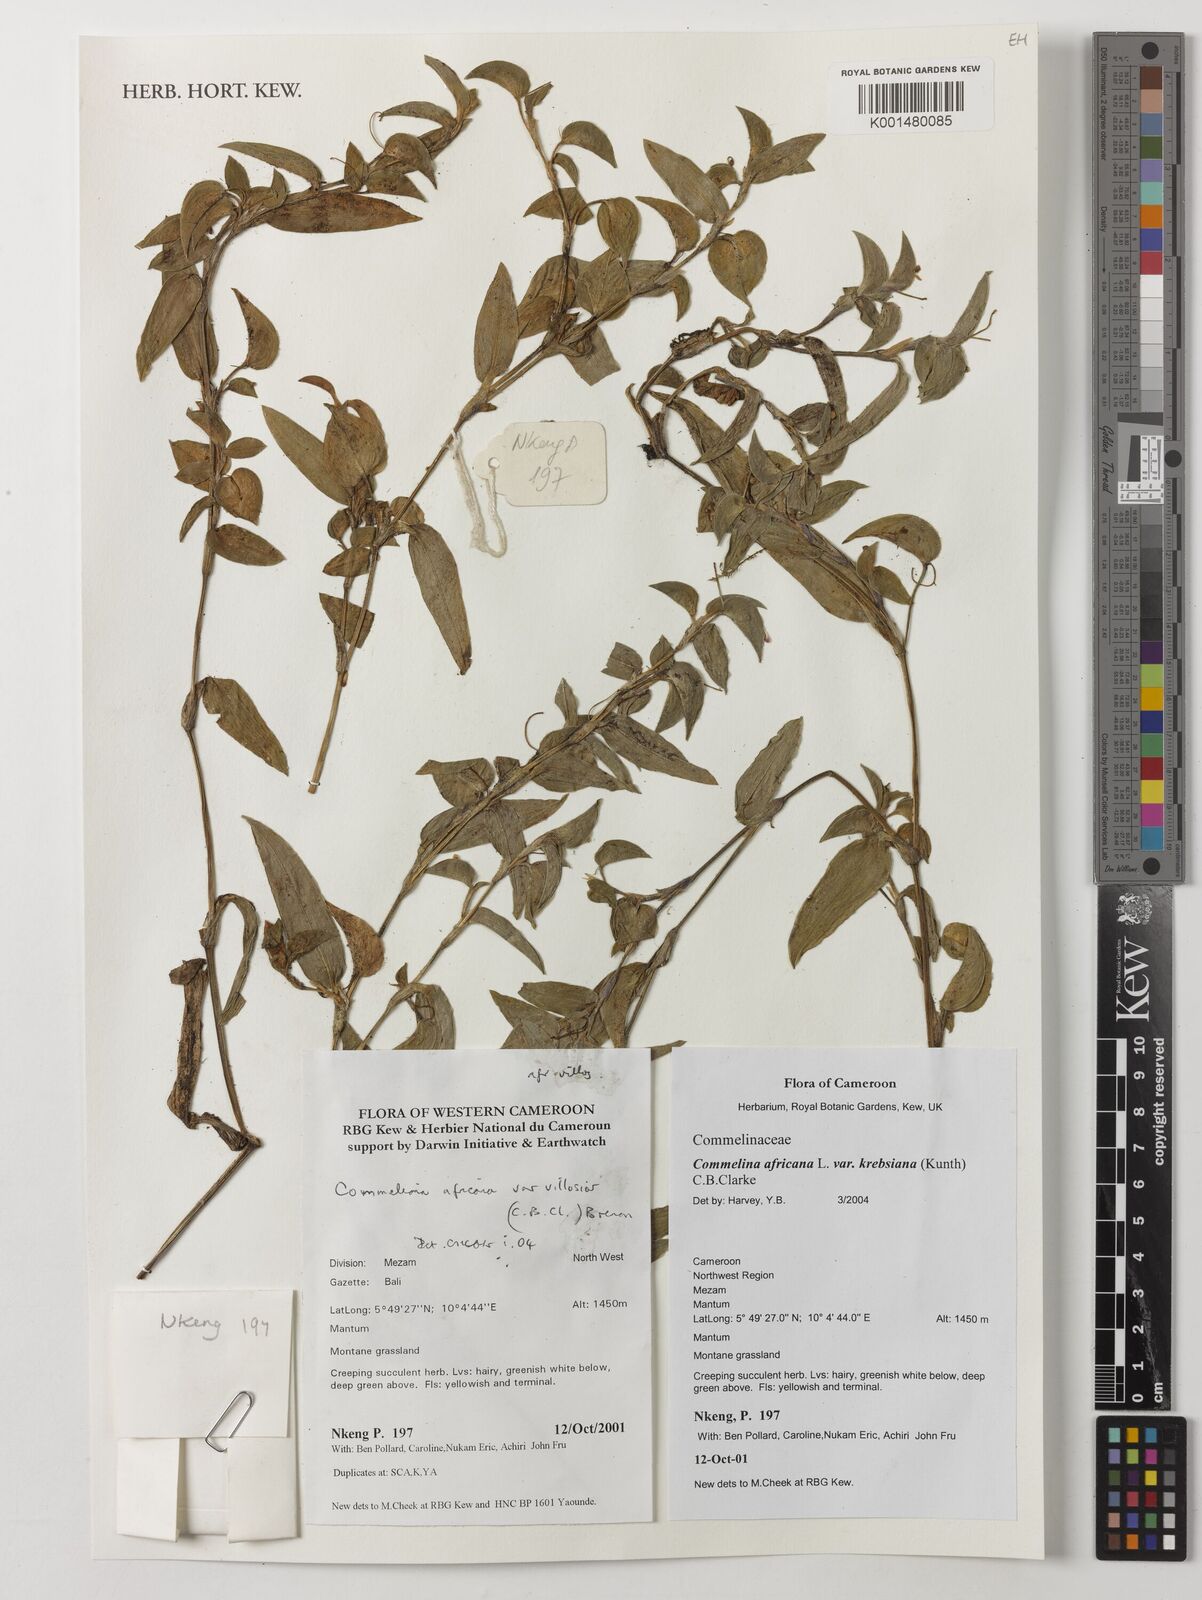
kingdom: Plantae
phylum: Tracheophyta
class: Liliopsida
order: Commelinales
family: Commelinaceae
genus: Commelina
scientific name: Commelina africana
